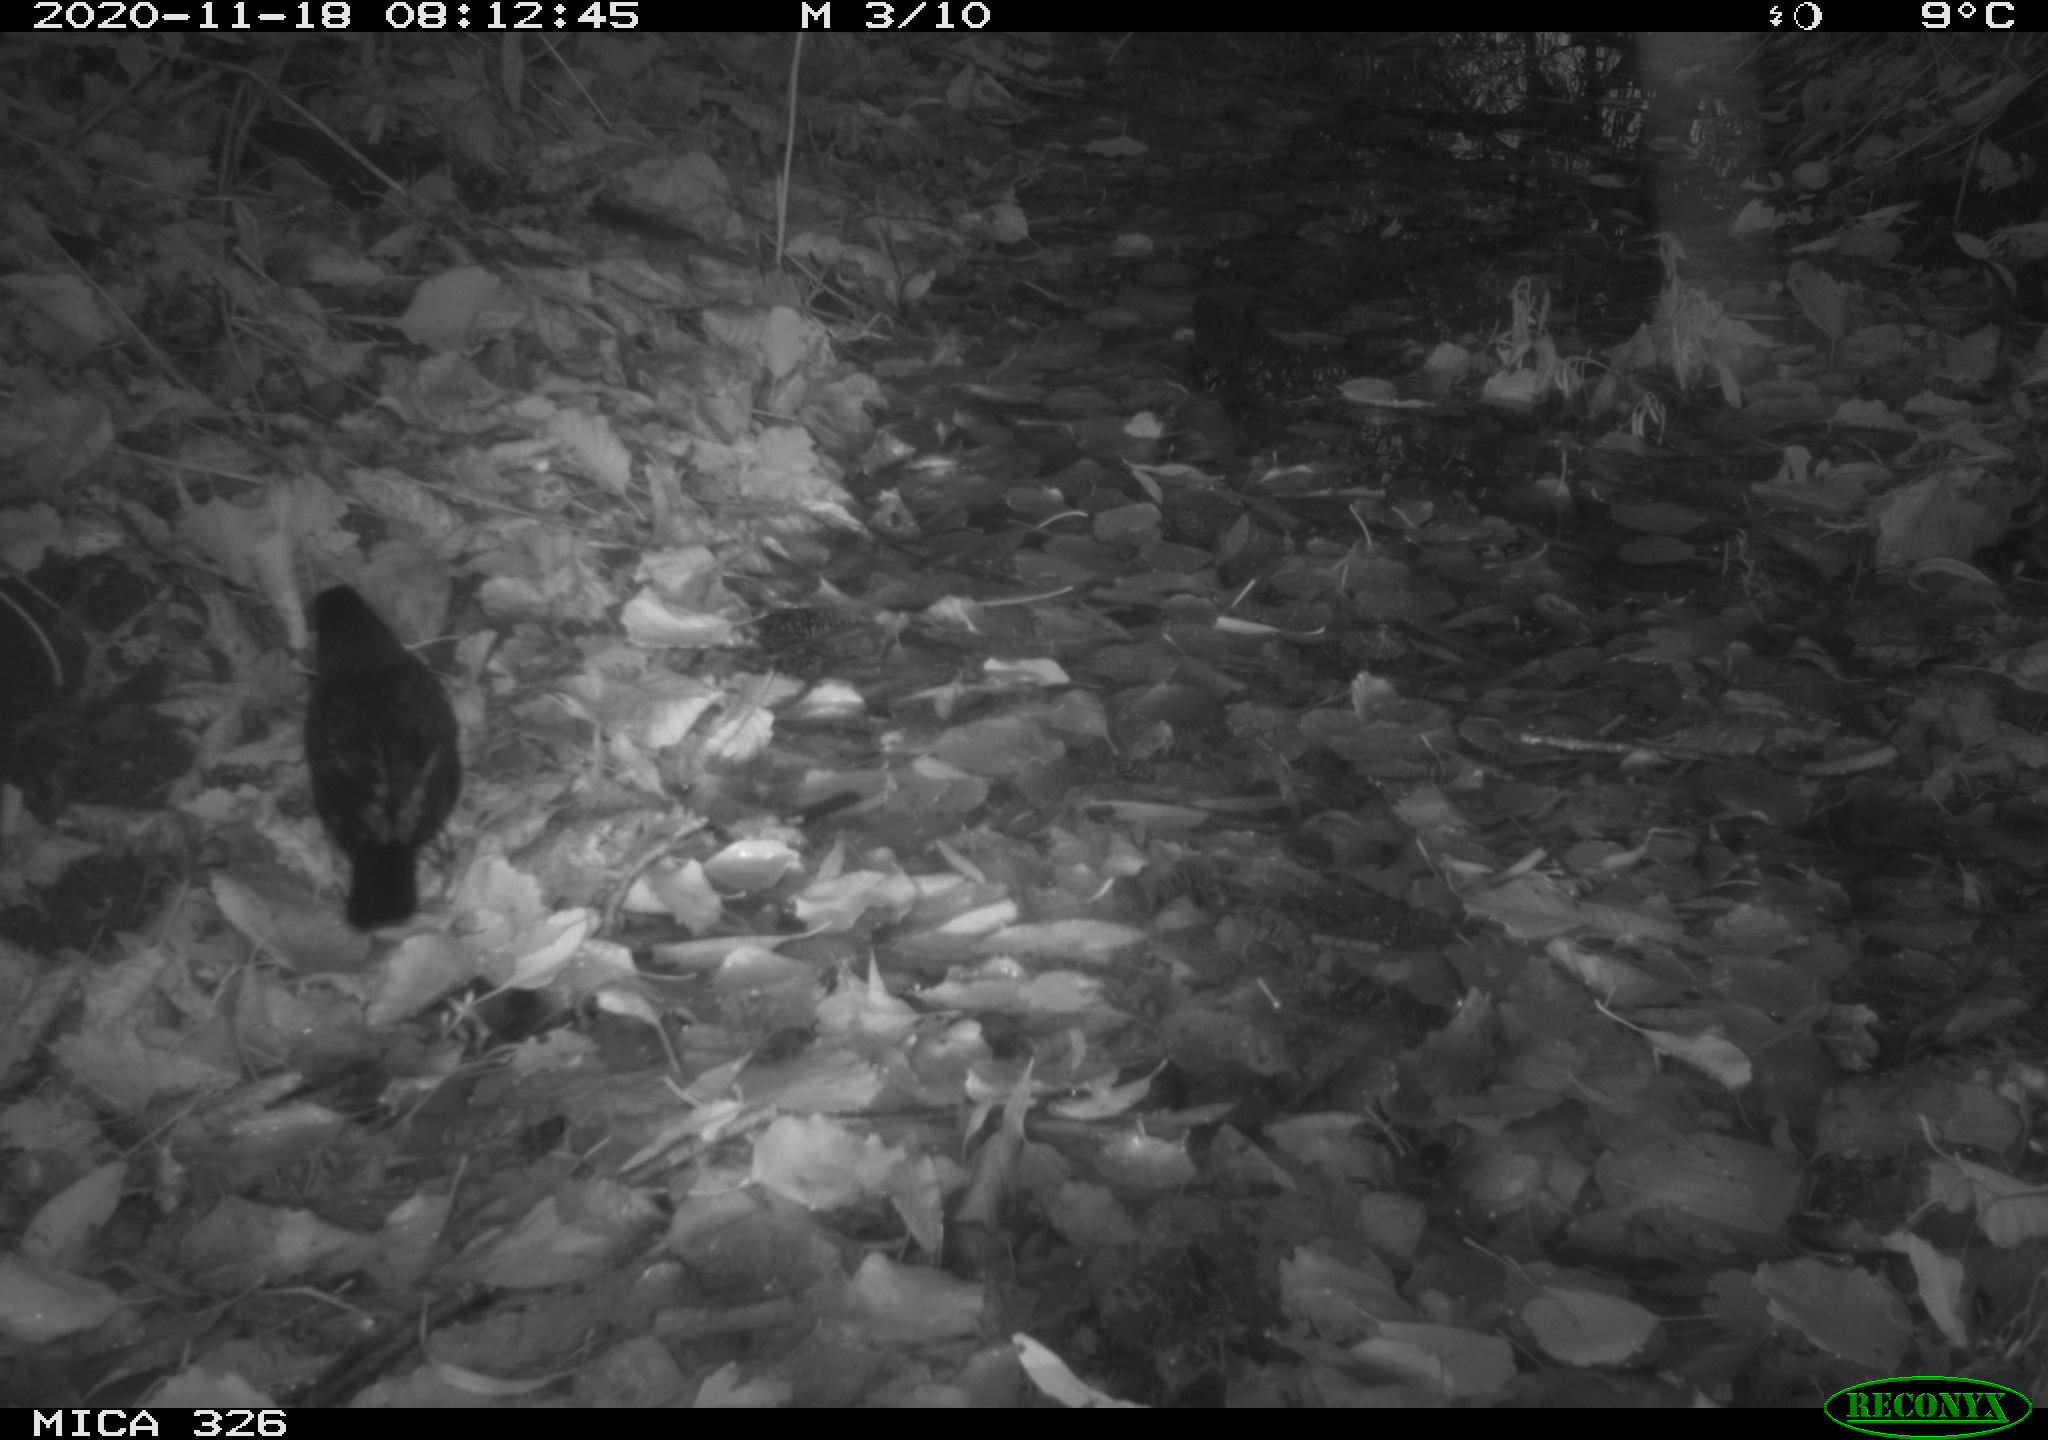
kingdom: Animalia
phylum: Chordata
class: Aves
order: Passeriformes
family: Turdidae
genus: Turdus
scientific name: Turdus merula
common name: Common blackbird
